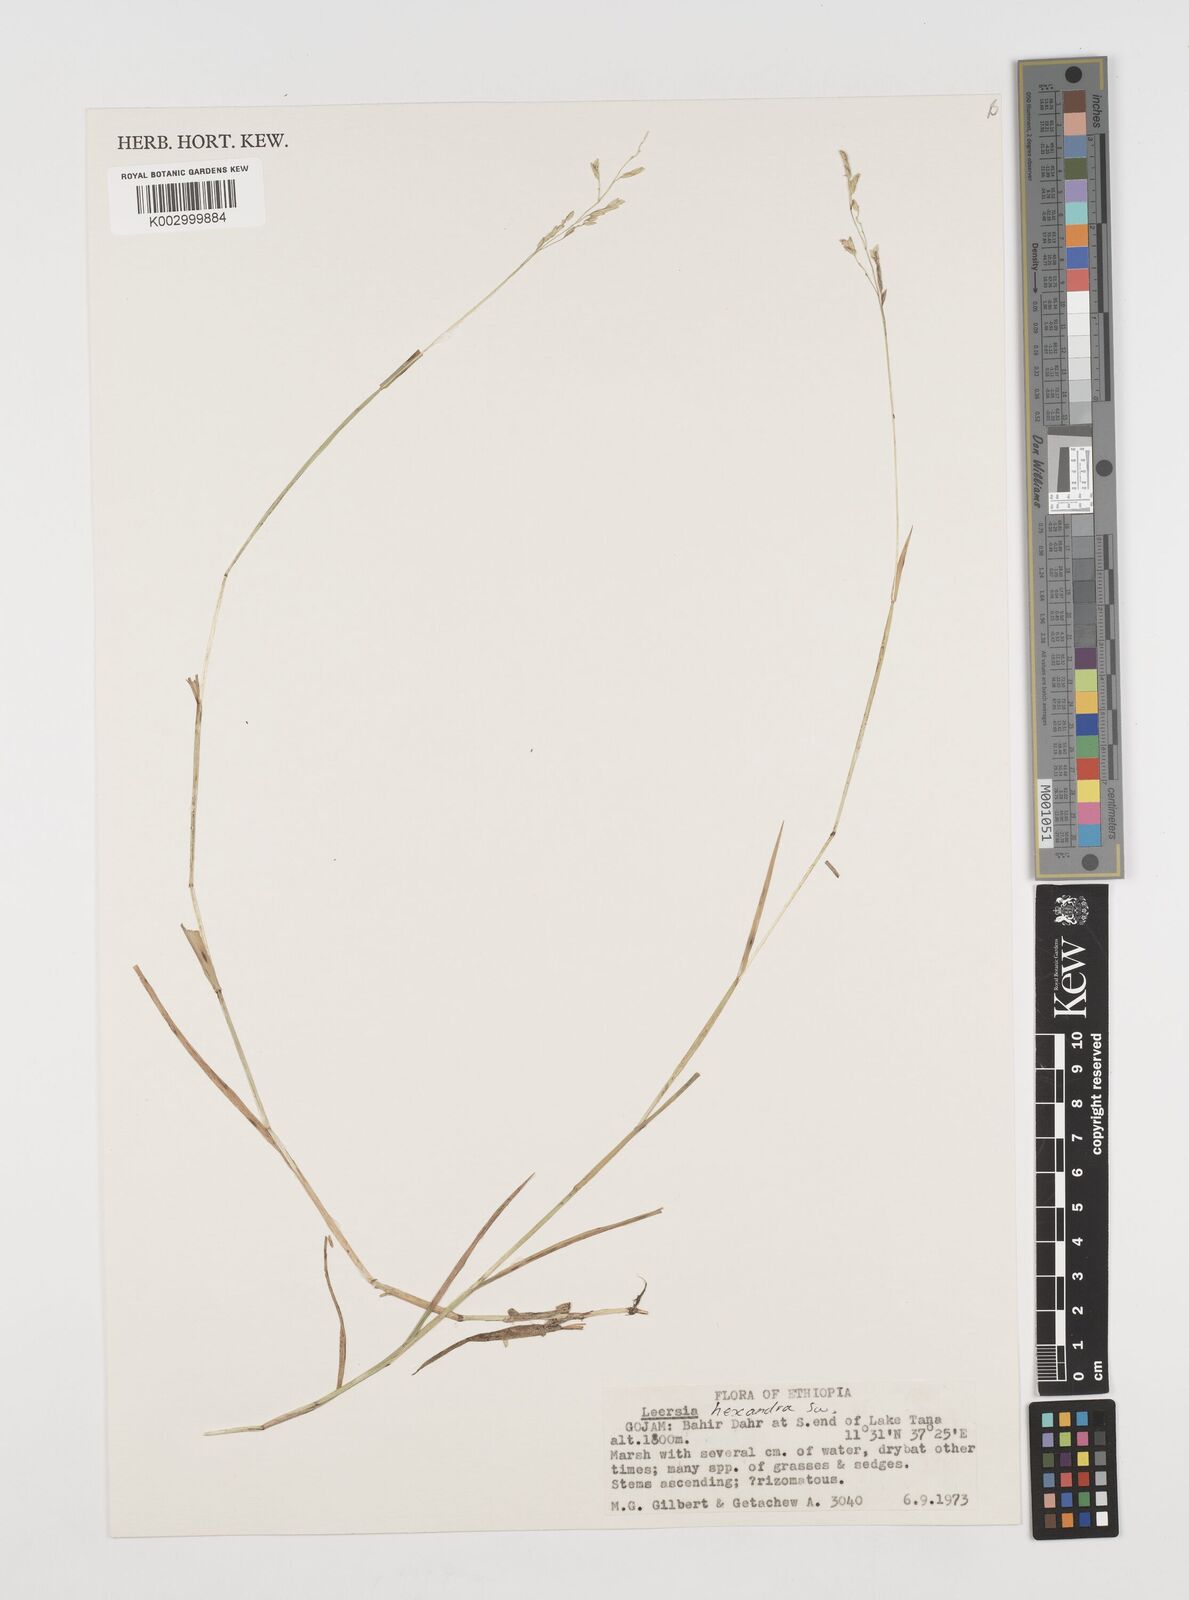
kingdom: Plantae
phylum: Tracheophyta
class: Liliopsida
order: Poales
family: Poaceae
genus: Leersia
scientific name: Leersia hexandra
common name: Southern cut grass
